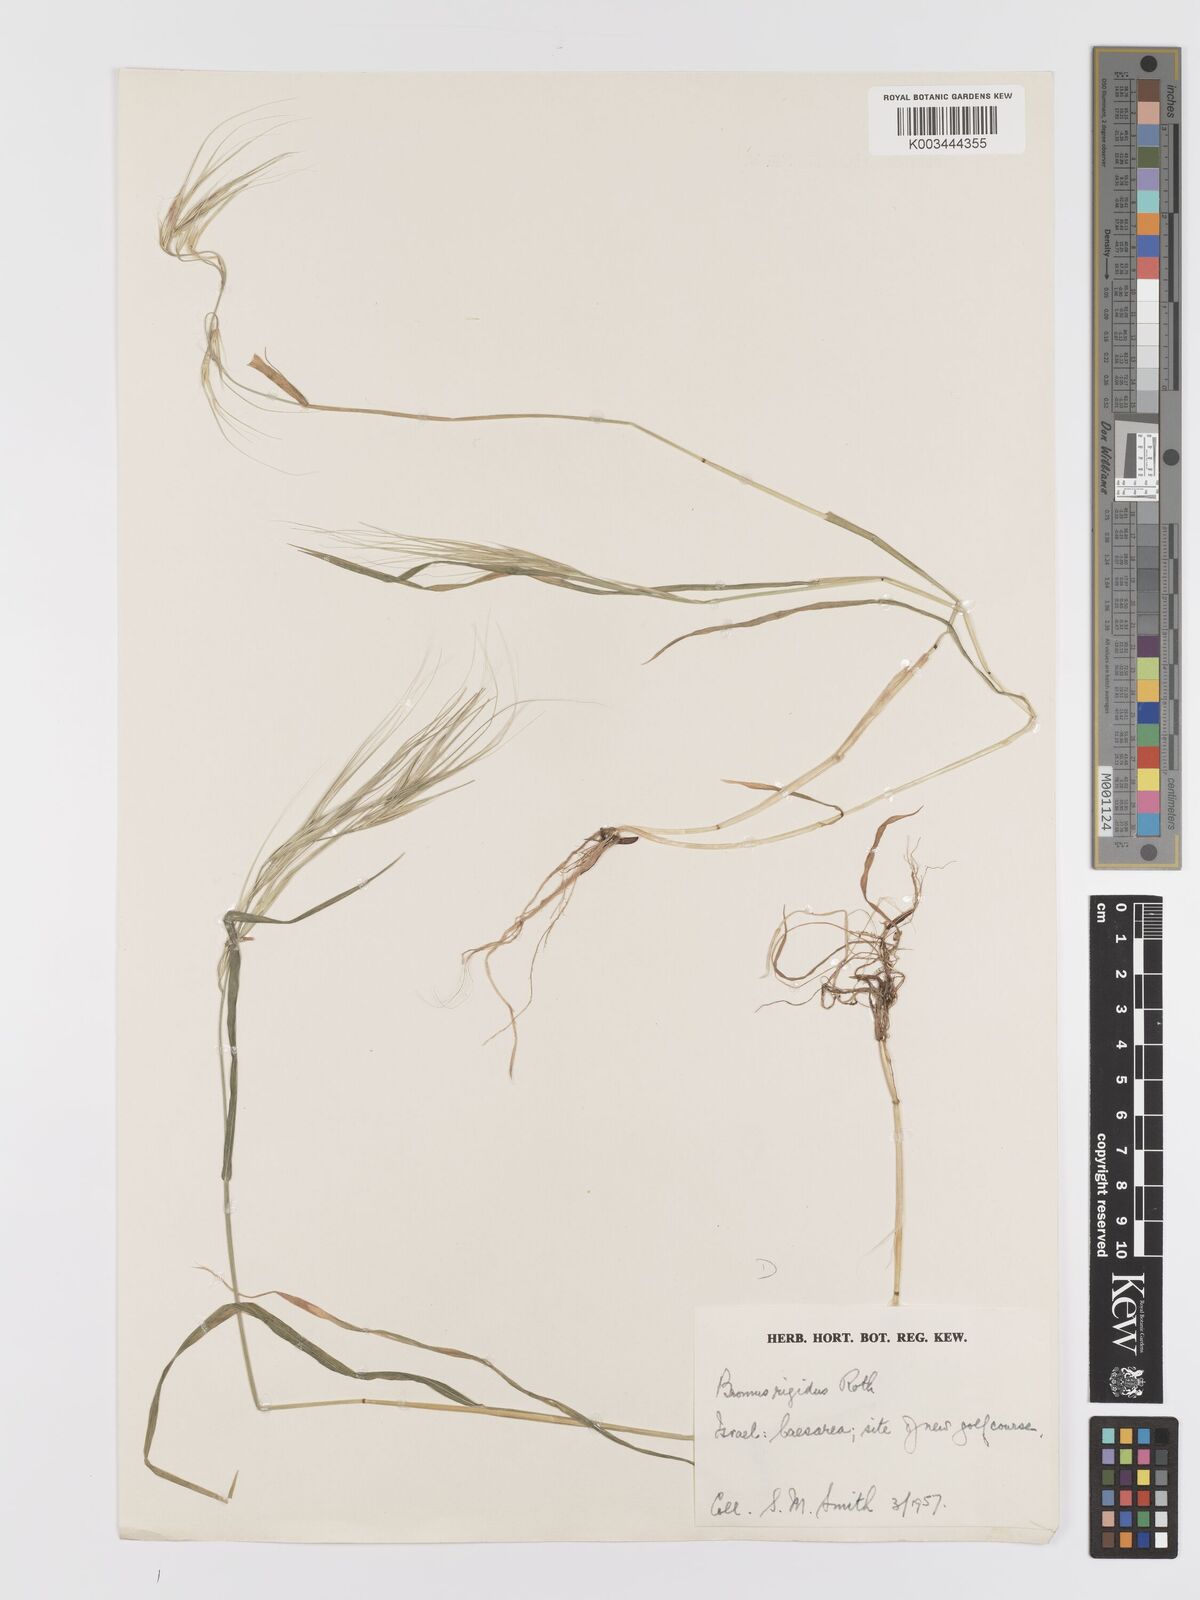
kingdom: Plantae
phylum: Tracheophyta
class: Liliopsida
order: Poales
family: Poaceae
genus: Bromus
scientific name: Bromus diandrus
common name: Ripgut brome
